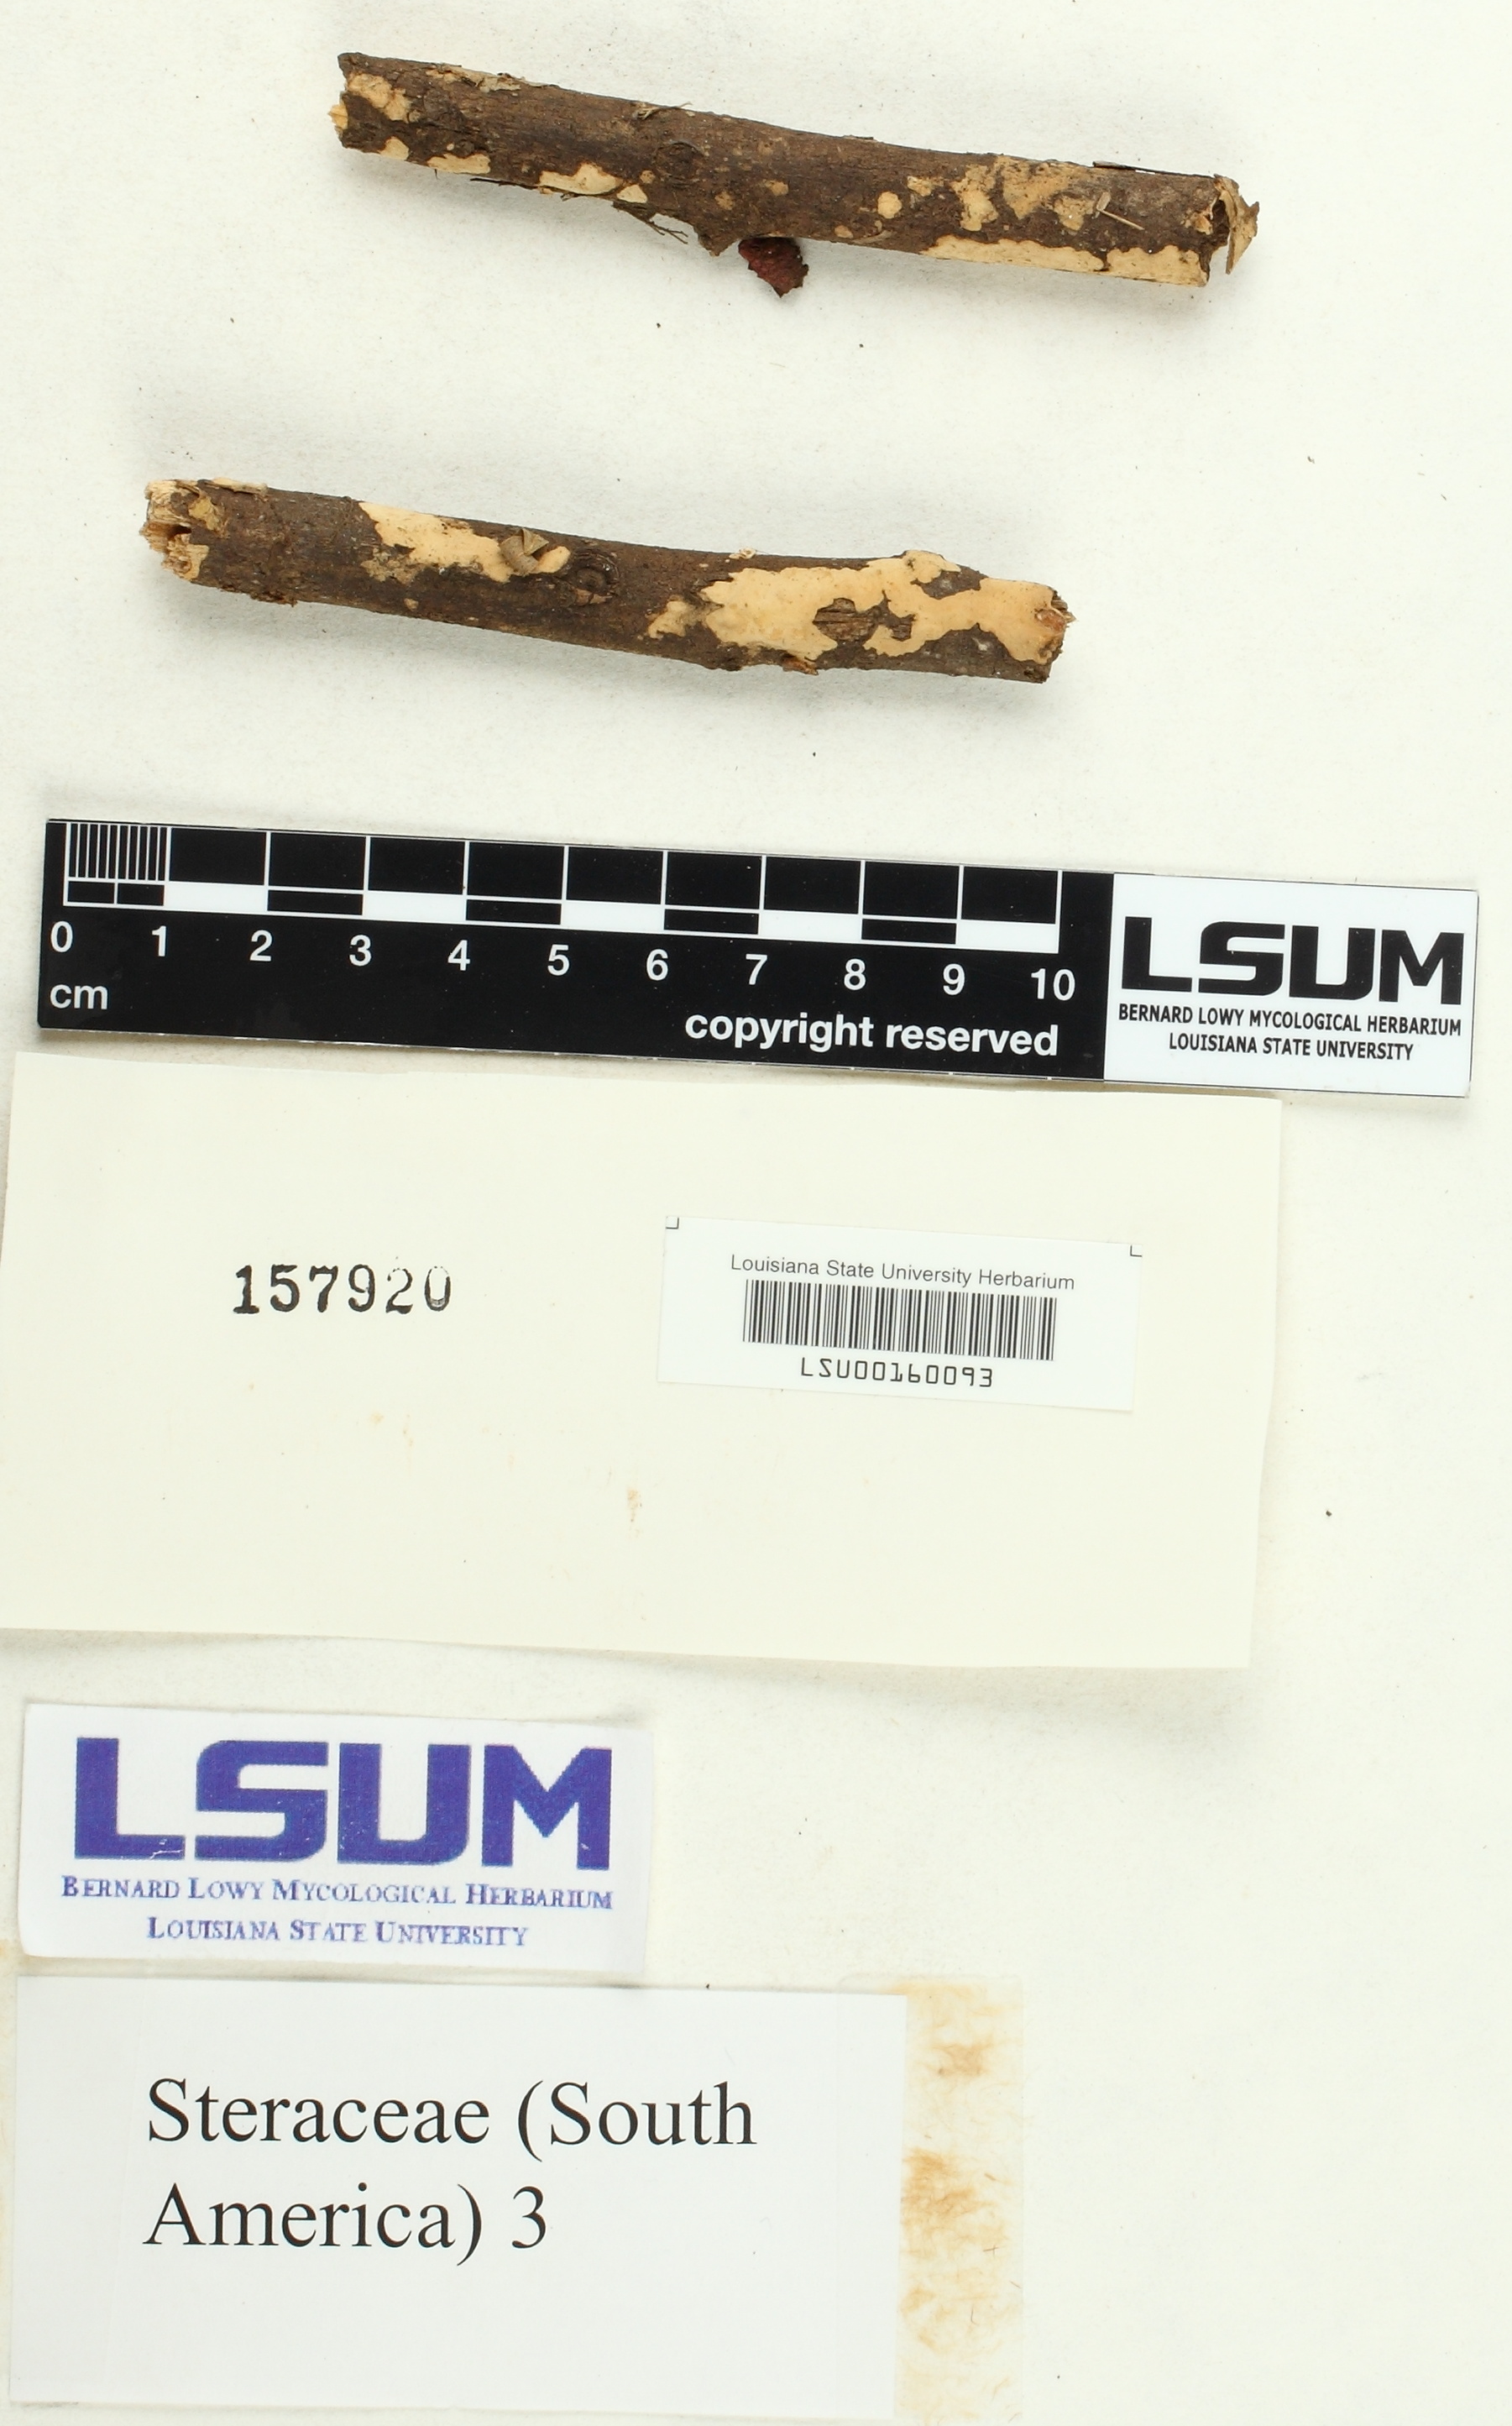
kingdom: Fungi
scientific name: Fungi
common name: Fungi
